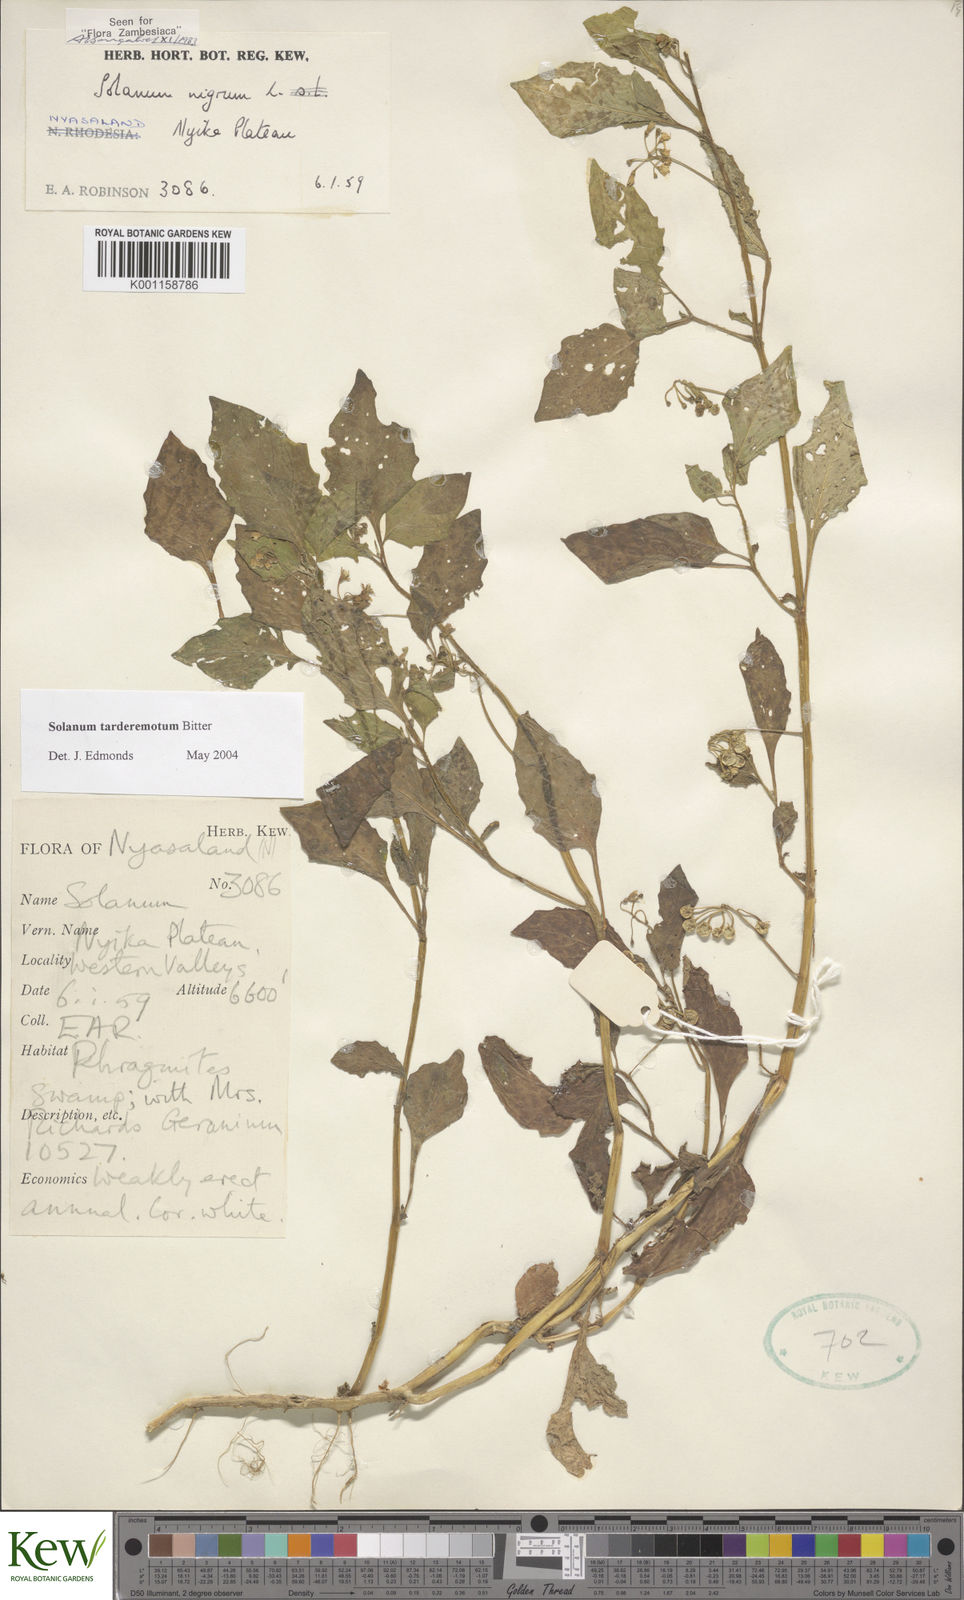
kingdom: Plantae
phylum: Tracheophyta
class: Magnoliopsida
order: Solanales
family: Solanaceae
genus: Solanum
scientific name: Solanum tarderemotum
